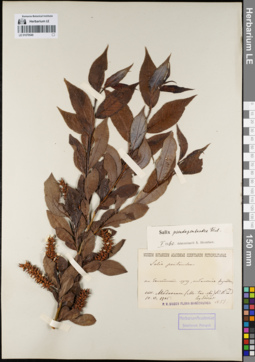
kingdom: Plantae
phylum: Tracheophyta
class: Magnoliopsida
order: Malpighiales
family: Salicaceae
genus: Salix
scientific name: Salix pseudopentandra
